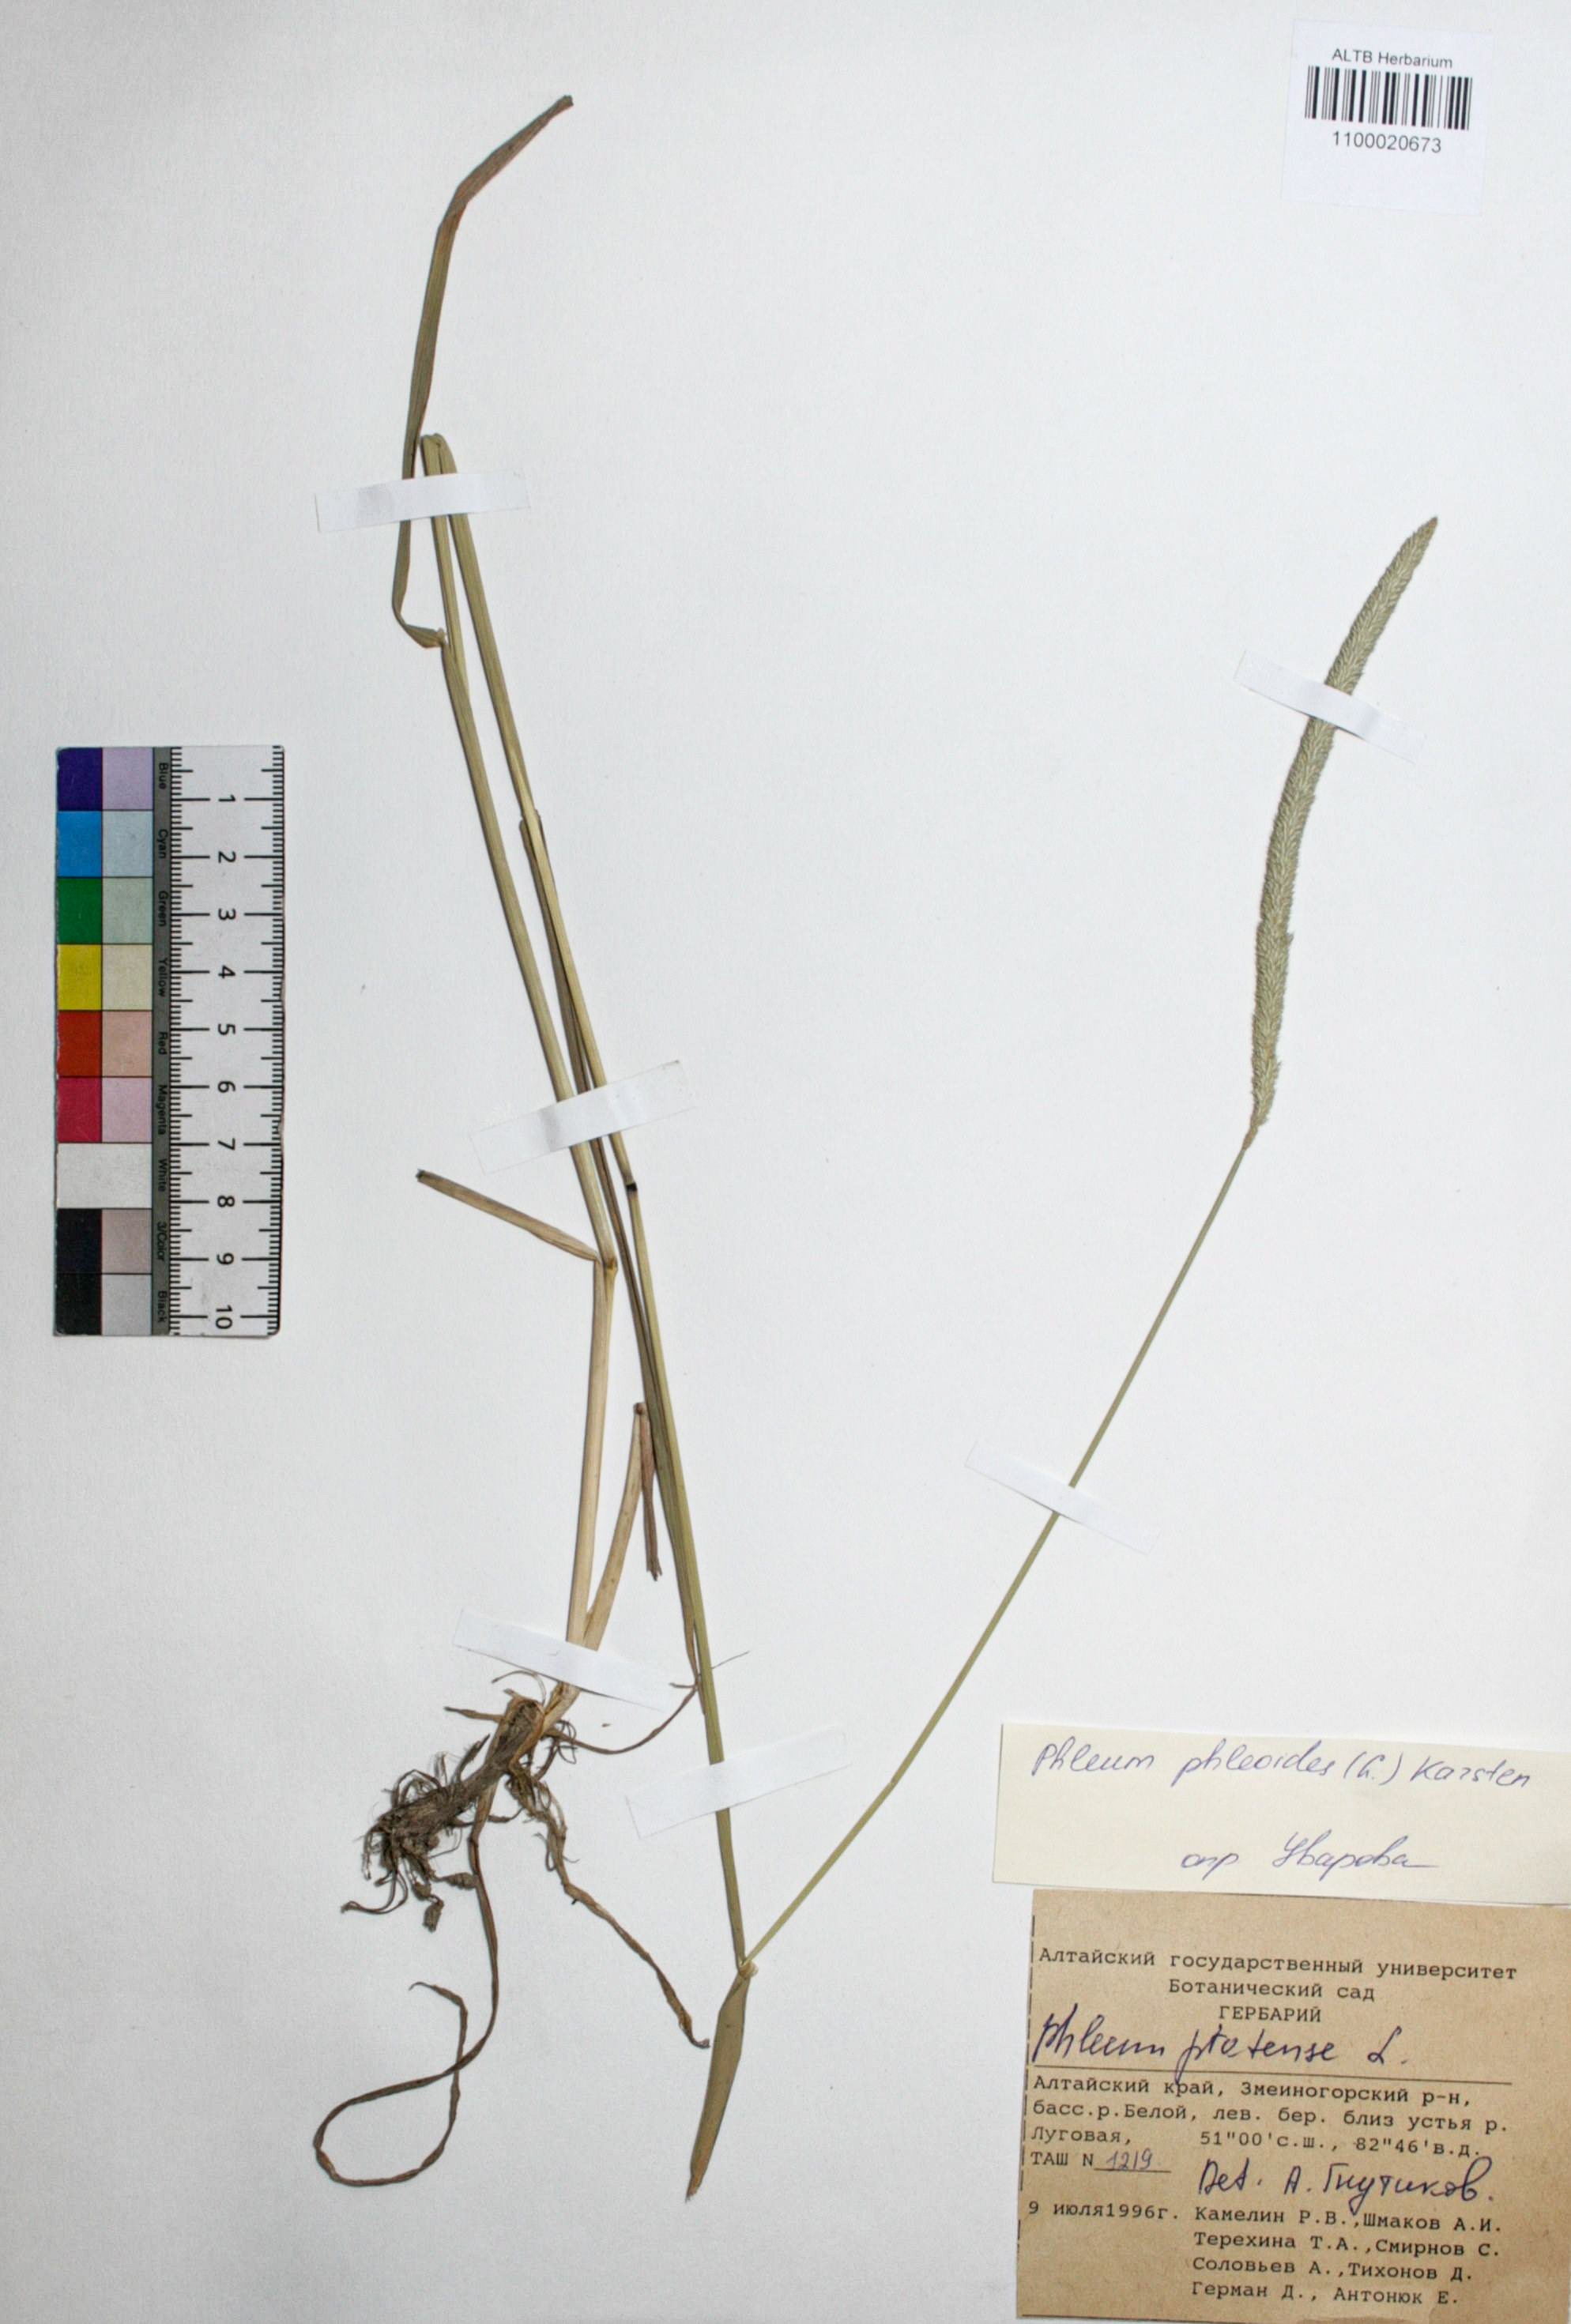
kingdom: Plantae
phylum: Tracheophyta
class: Liliopsida
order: Poales
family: Poaceae
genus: Phleum
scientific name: Phleum pratense
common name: Timothy grass
